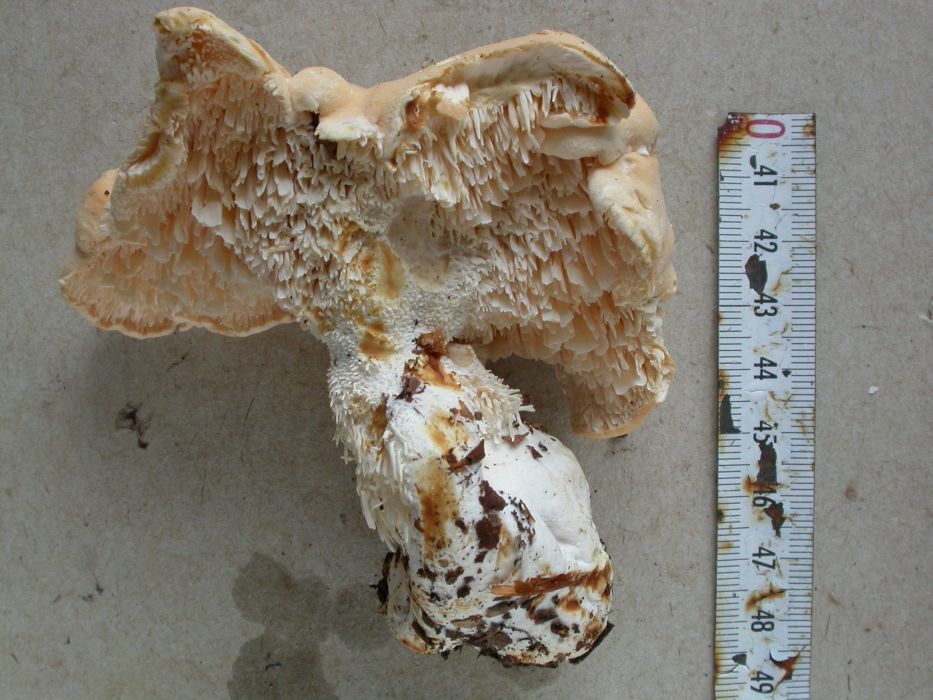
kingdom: Fungi
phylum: Basidiomycota
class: Agaricomycetes
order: Cantharellales
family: Hydnaceae
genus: Hydnum
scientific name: Hydnum repandum
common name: almindelig pigsvamp
